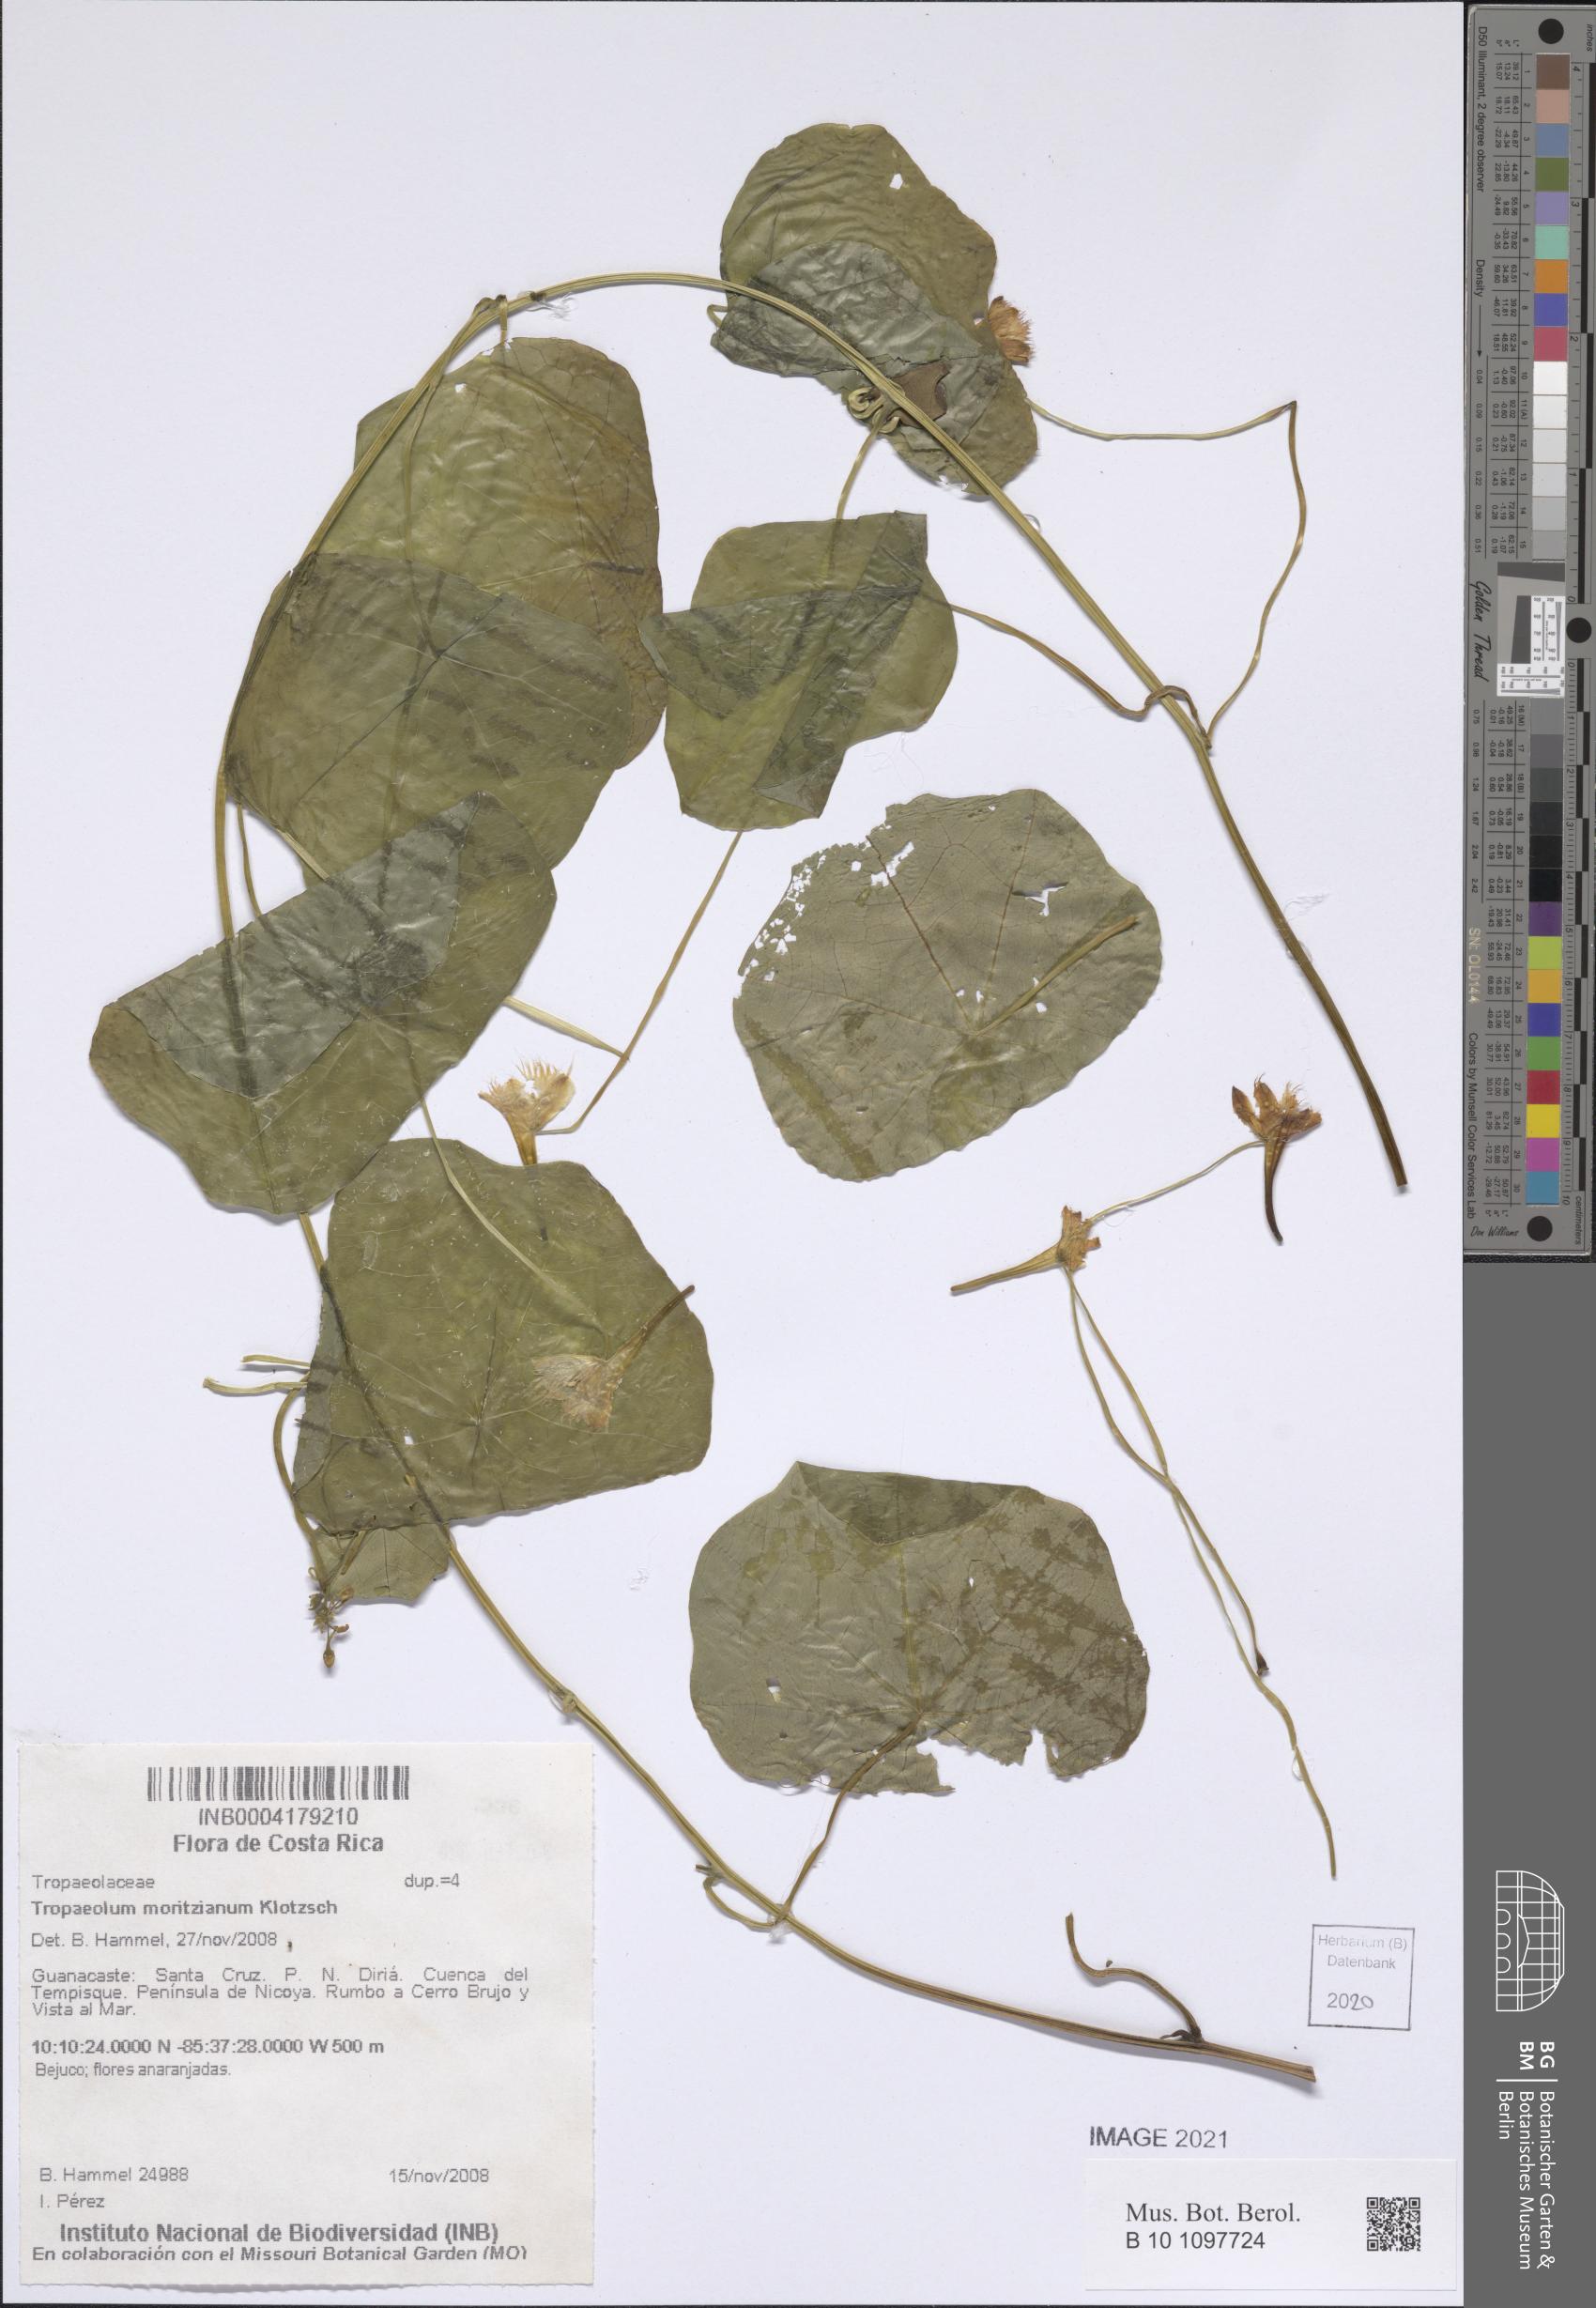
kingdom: Plantae
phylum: Tracheophyta
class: Magnoliopsida
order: Brassicales
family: Tropaeolaceae
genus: Tropaeolum
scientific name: Tropaeolum moritzianum
